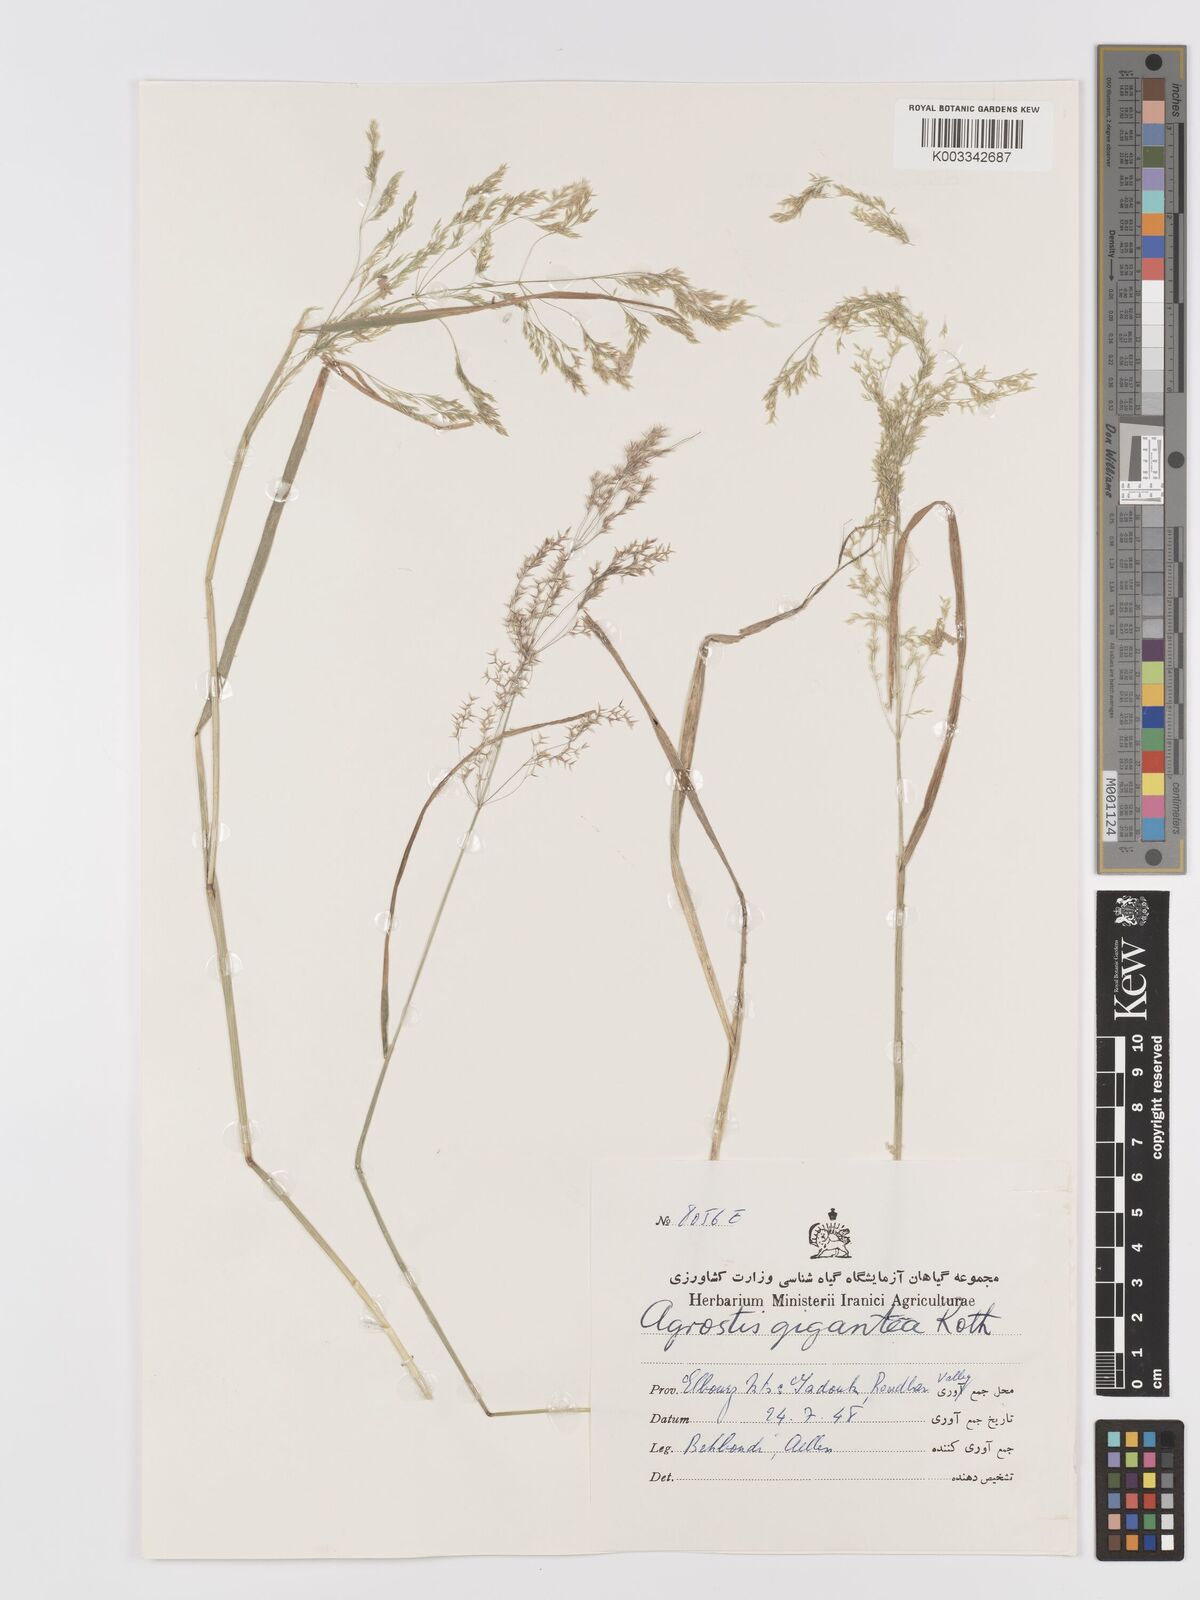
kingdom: Plantae
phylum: Tracheophyta
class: Liliopsida
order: Poales
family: Poaceae
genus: Agrostis
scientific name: Agrostis gigantea
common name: Black bent
